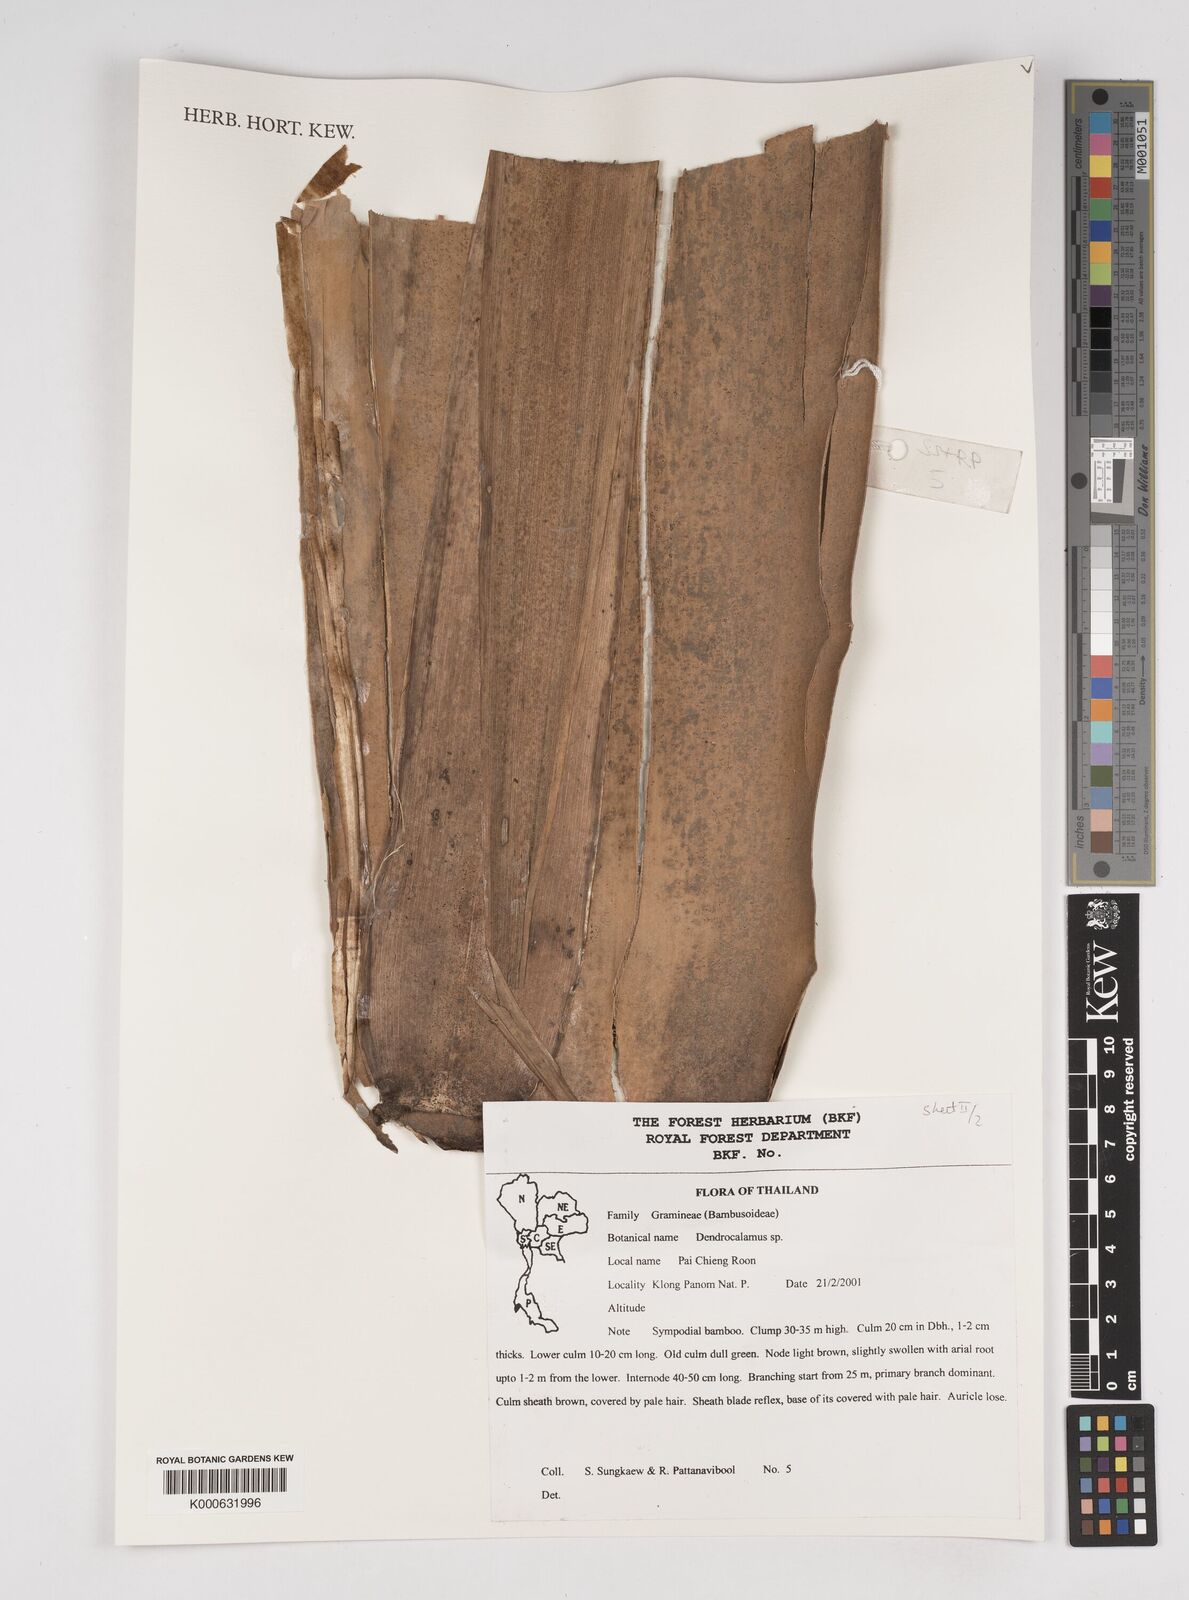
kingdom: Plantae
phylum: Tracheophyta
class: Liliopsida
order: Poales
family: Poaceae
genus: Dendrocalamus
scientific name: Dendrocalamus
